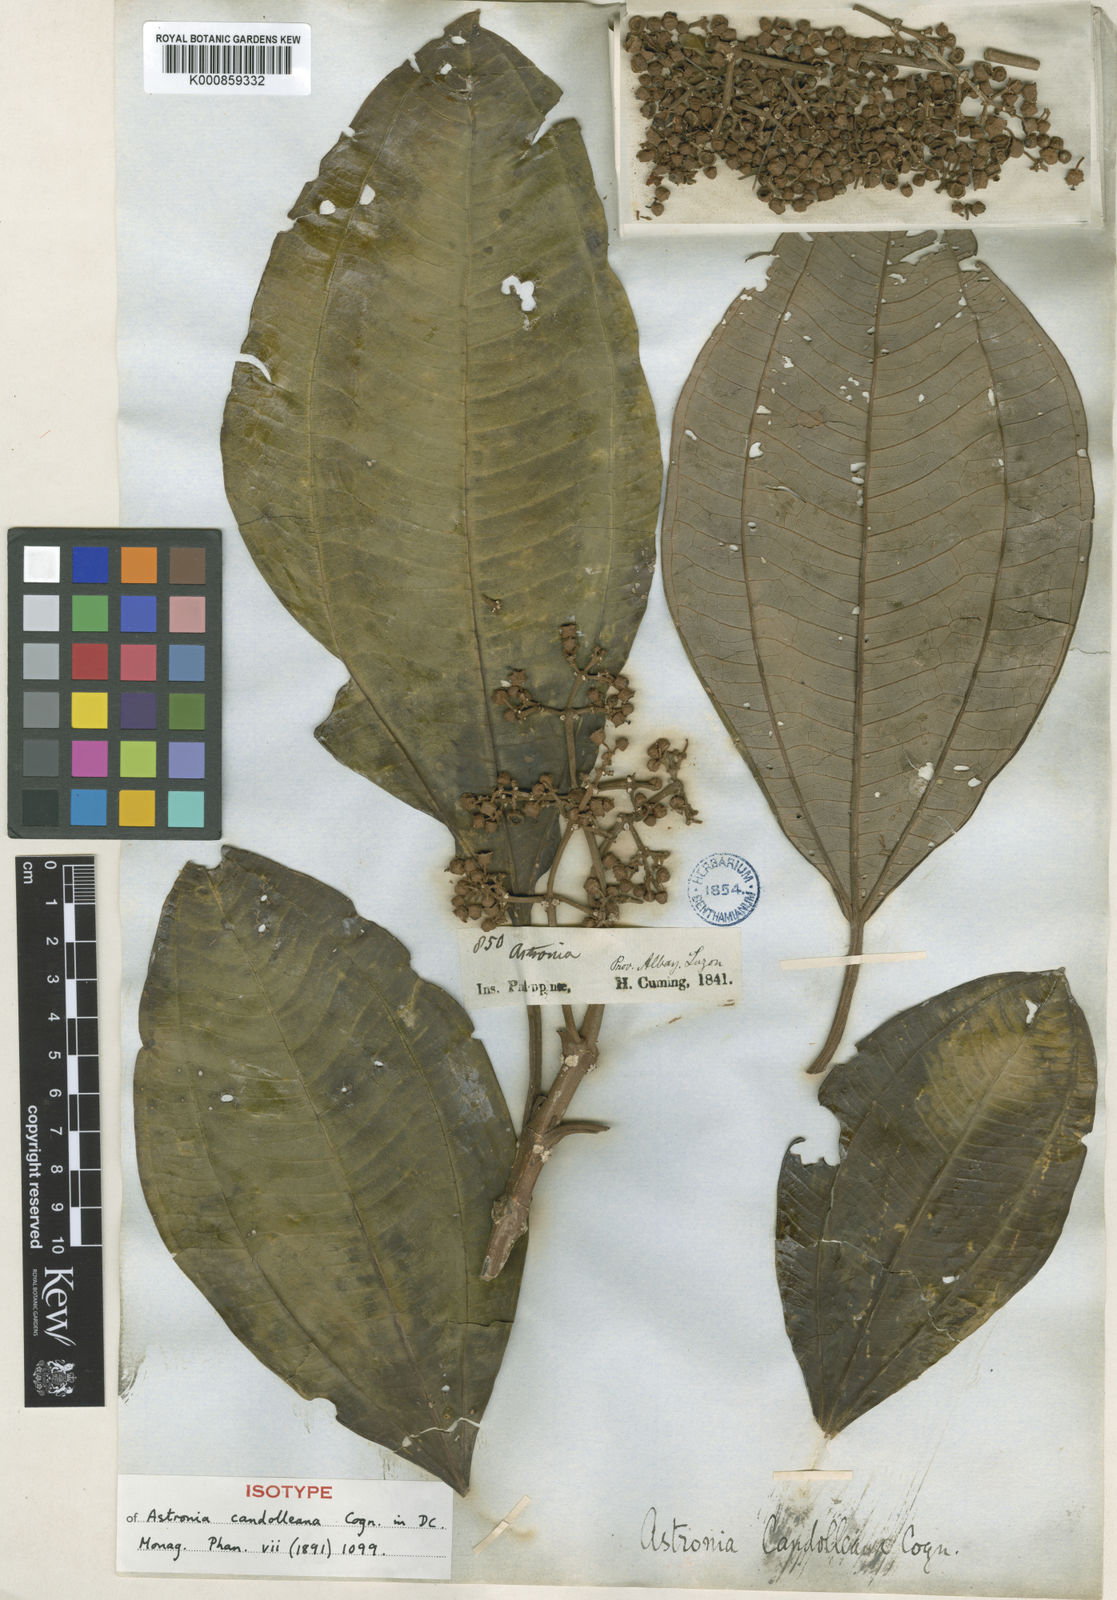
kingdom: Plantae
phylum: Tracheophyta
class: Magnoliopsida
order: Myrtales
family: Melastomataceae
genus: Astronia
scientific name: Astronia candolleana
